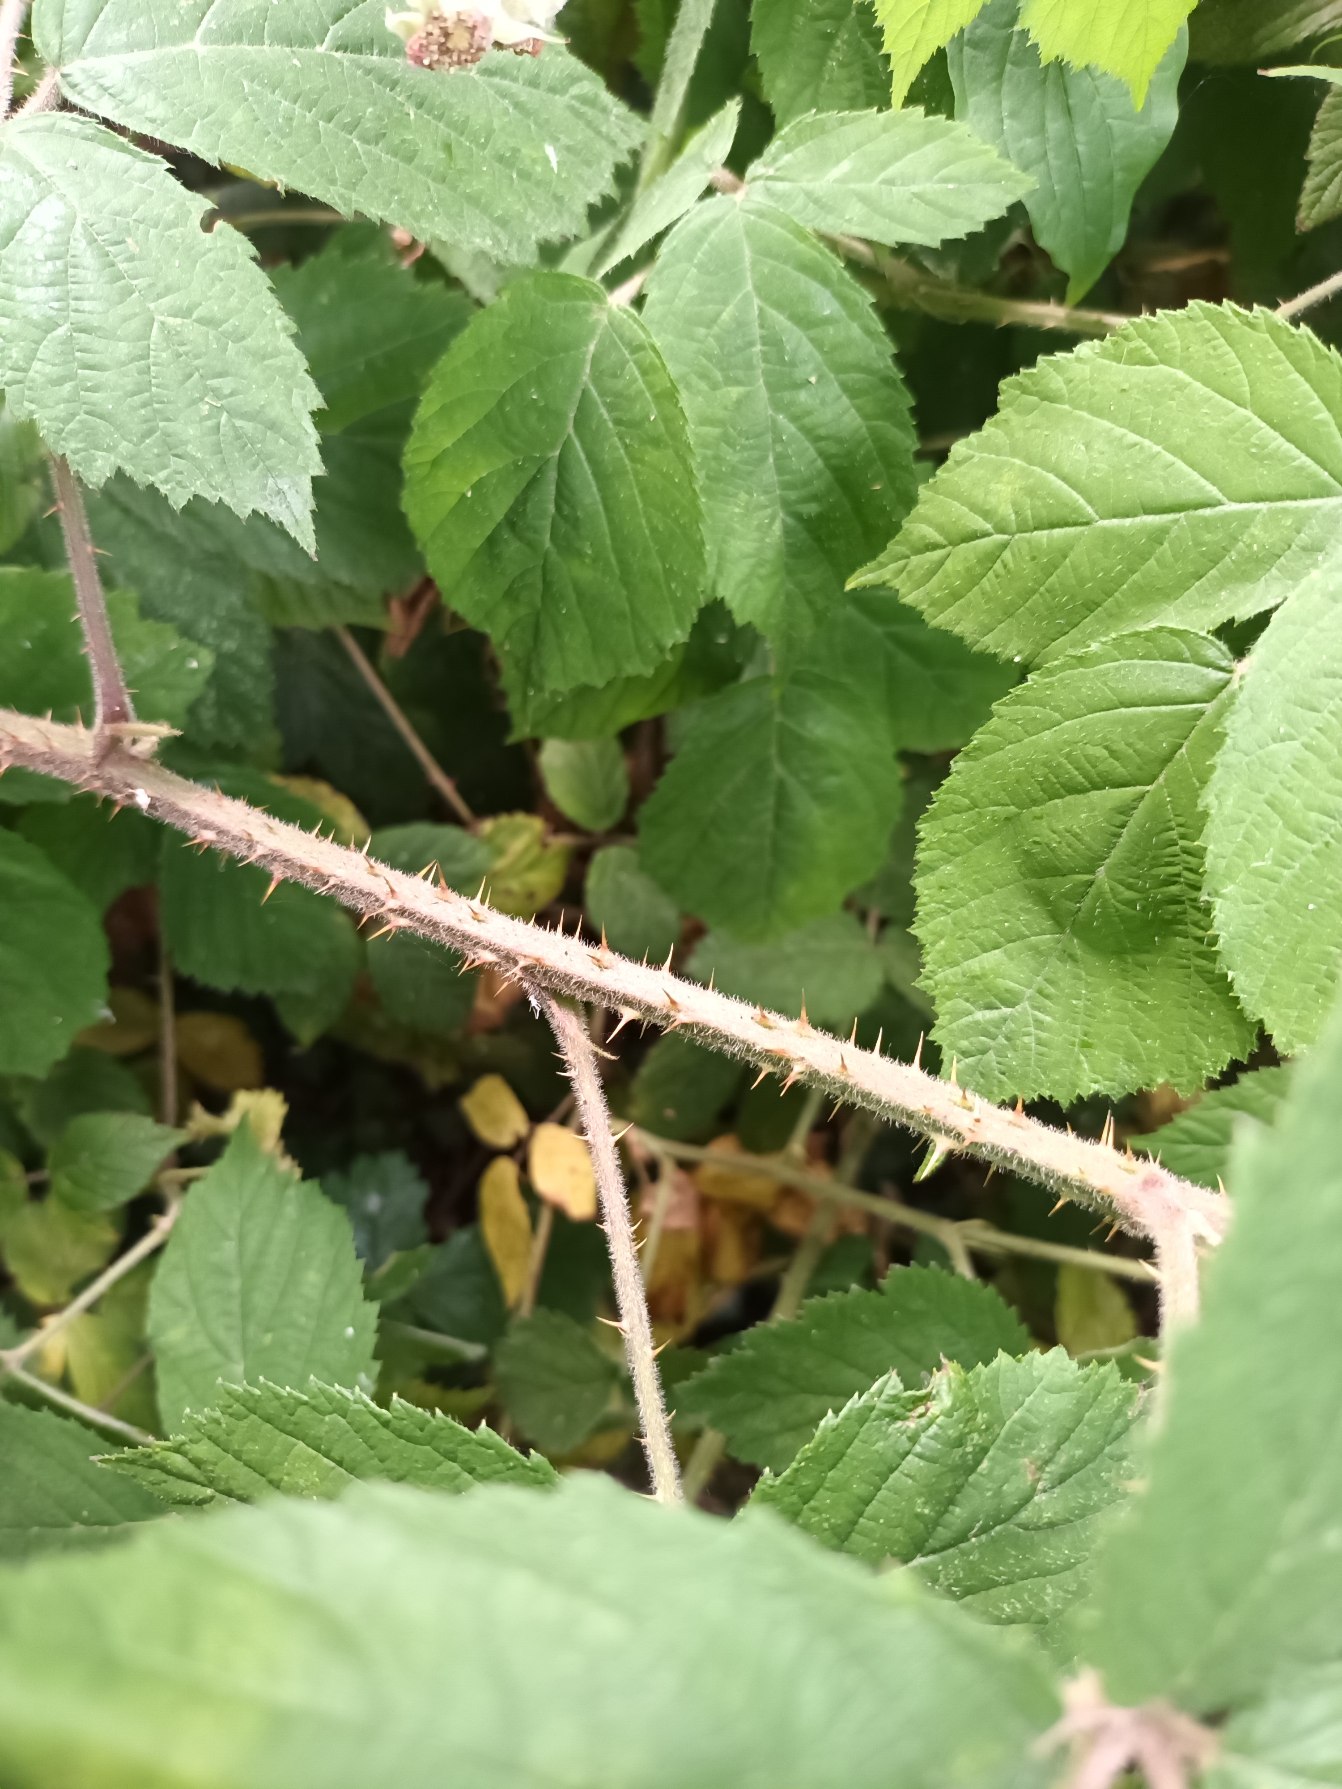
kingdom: Plantae
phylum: Tracheophyta
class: Magnoliopsida
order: Rosales
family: Rosaceae
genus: Rubus
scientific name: Rubus adscitus
